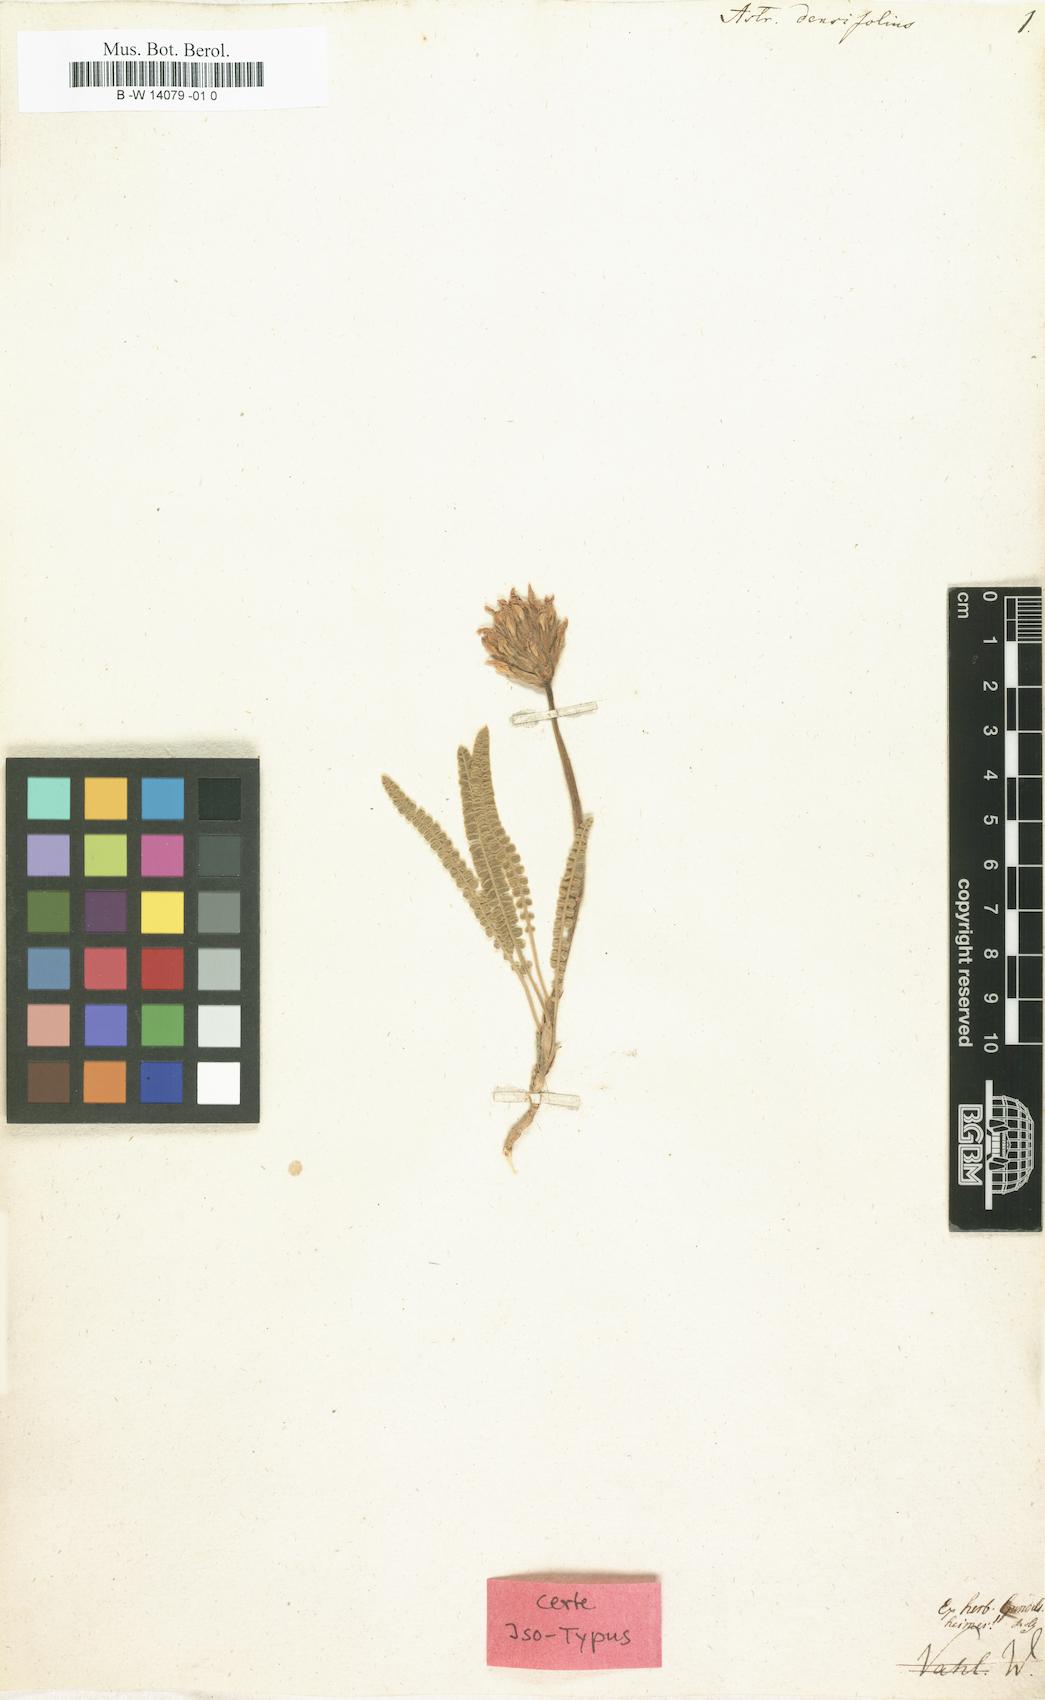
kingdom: Plantae
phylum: Tracheophyta
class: Magnoliopsida
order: Fabales
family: Fabaceae
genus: Astragalus
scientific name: Astragalus densifolius
